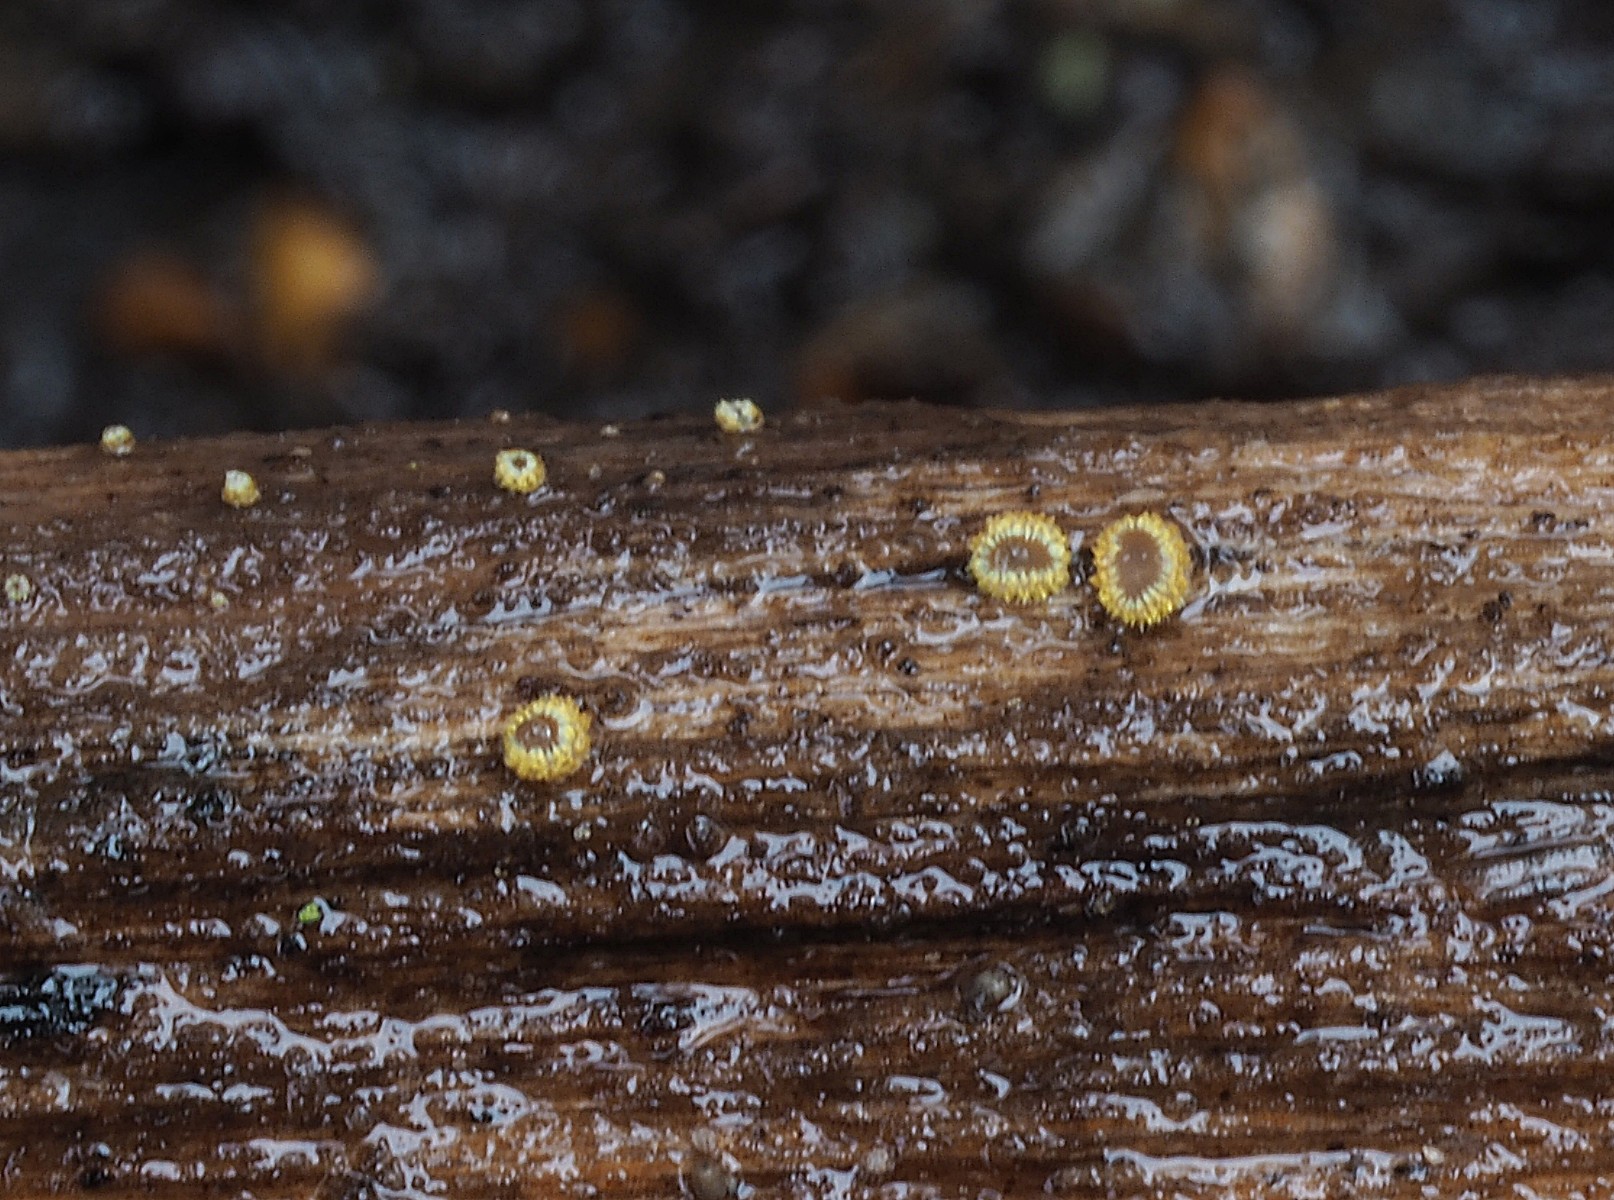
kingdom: Fungi
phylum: Ascomycota
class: Leotiomycetes
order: Helotiales
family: Lachnaceae
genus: Trichopeziza
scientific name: Trichopeziza subsulphurea
